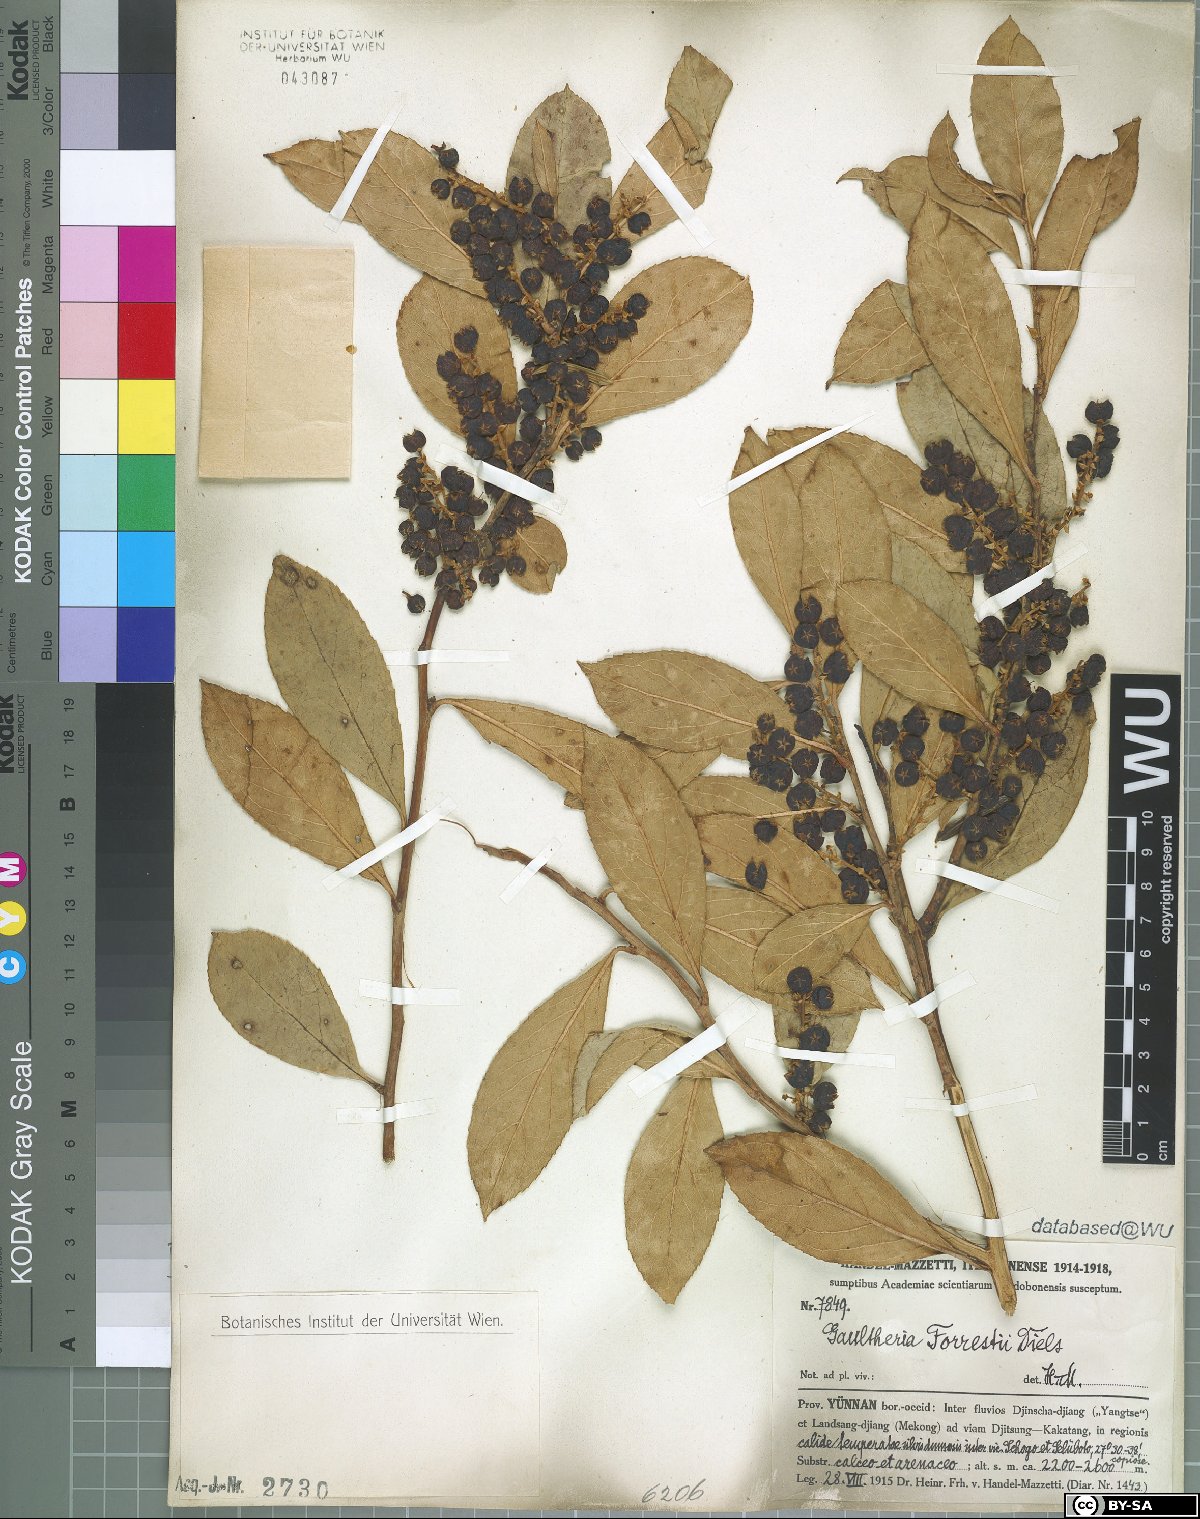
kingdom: Plantae
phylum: Tracheophyta
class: Magnoliopsida
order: Ericales
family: Ericaceae
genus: Gaultheria
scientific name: Gaultheria fragrantissima
